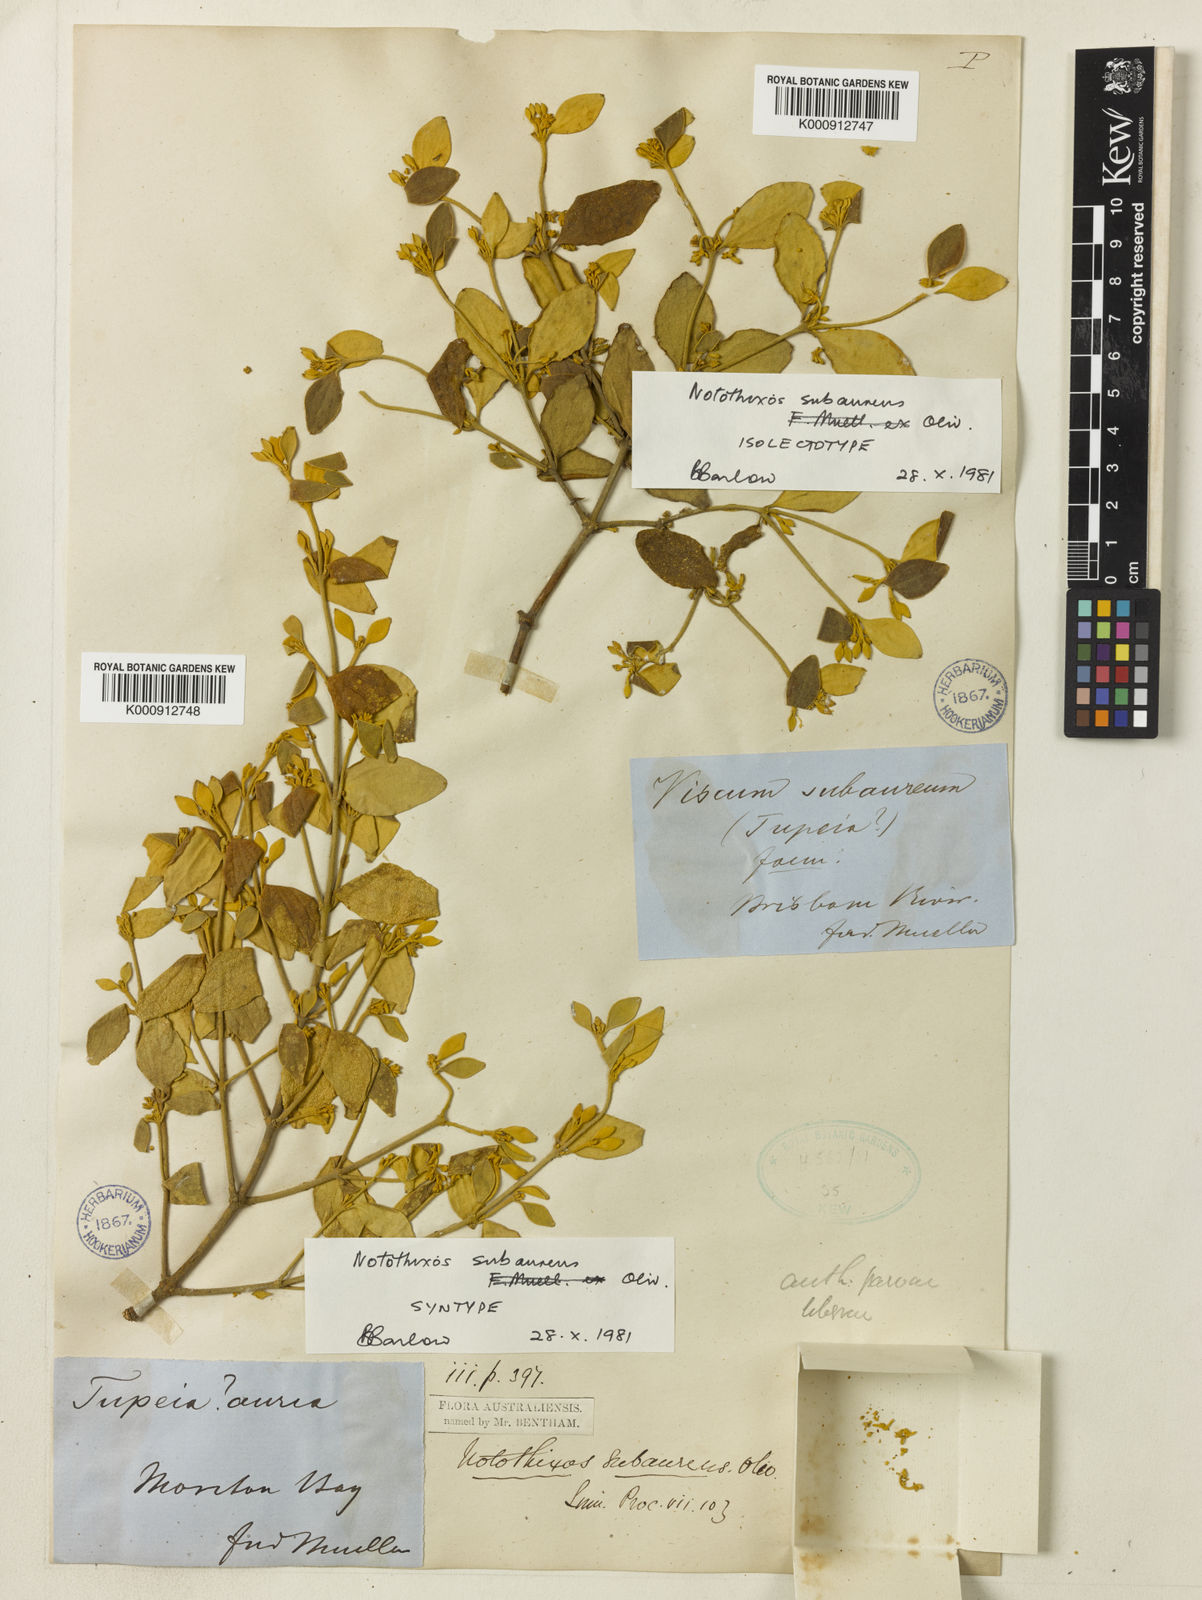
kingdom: Plantae
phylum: Tracheophyta
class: Magnoliopsida
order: Santalales
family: Viscaceae
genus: Notothixos
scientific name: Notothixos subaureus
